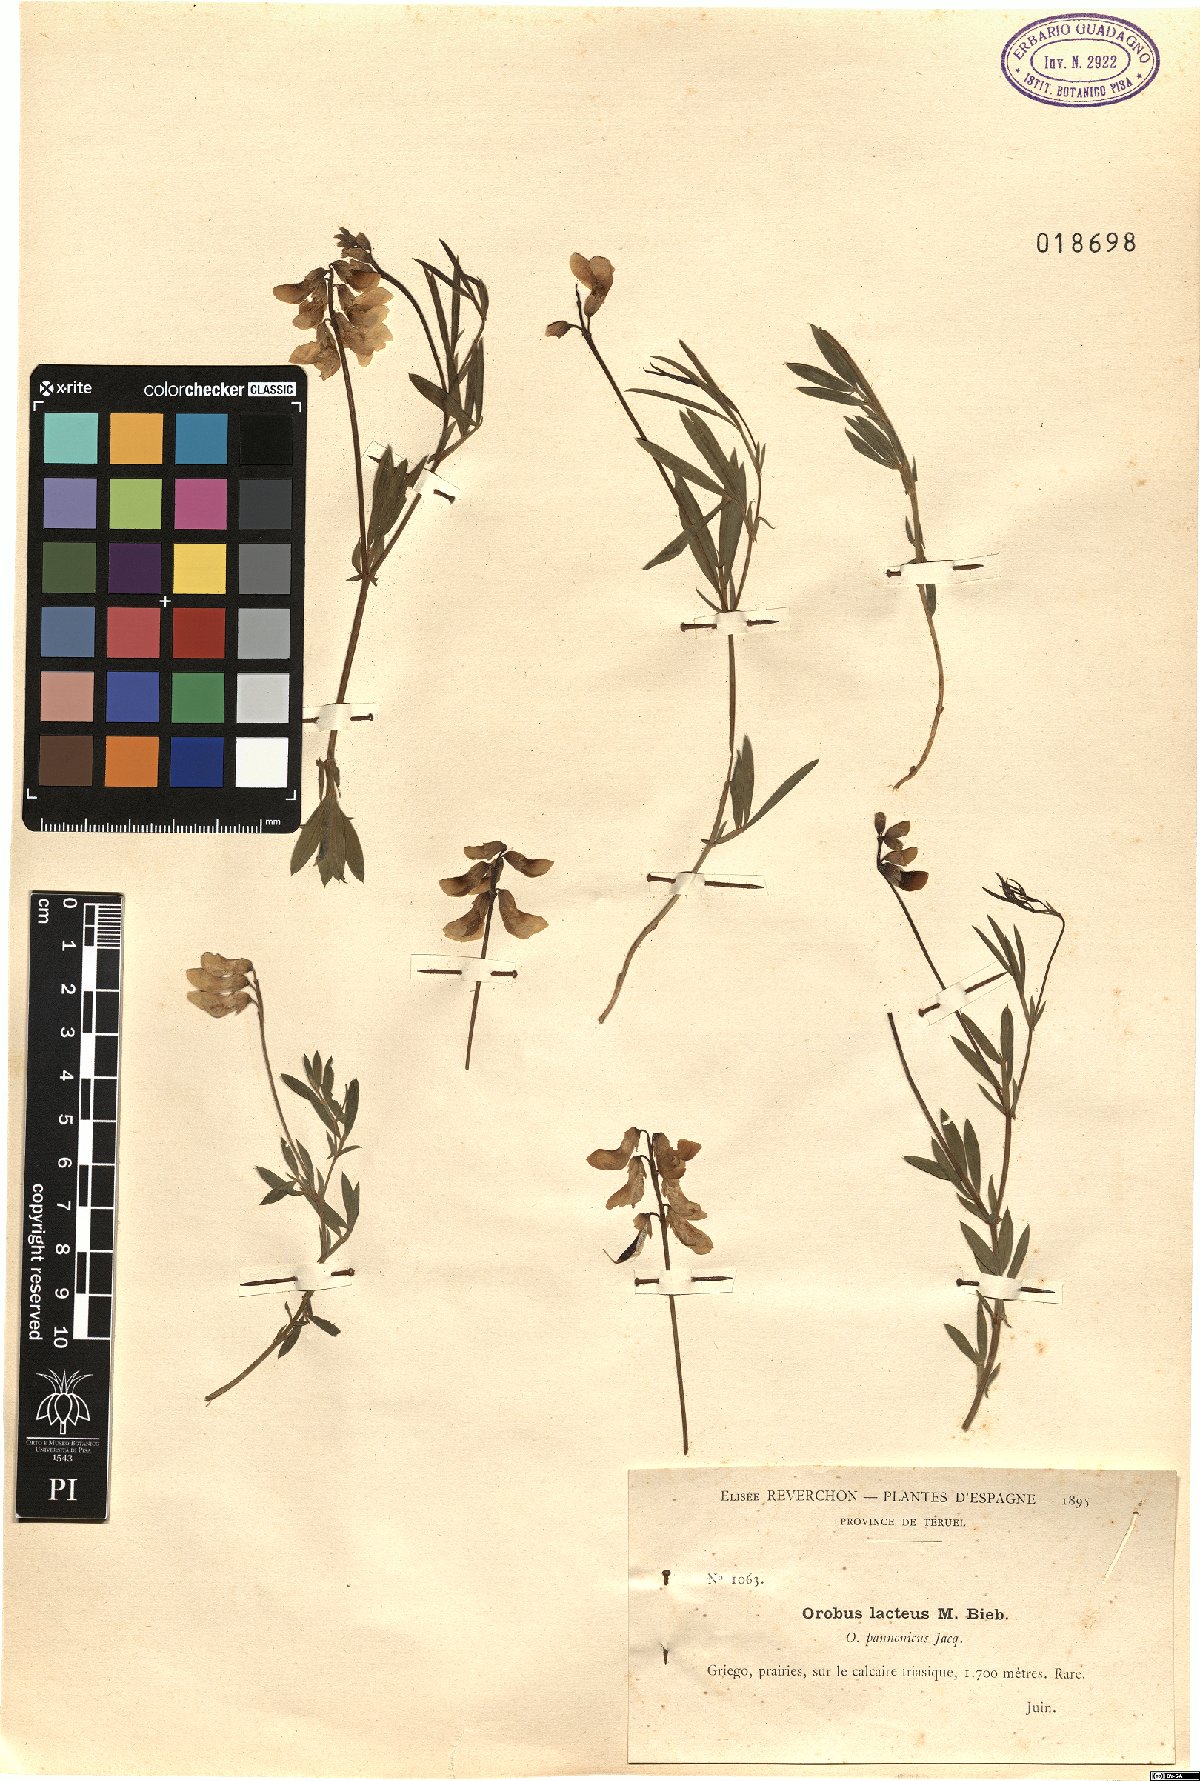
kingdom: Plantae
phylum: Tracheophyta
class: Magnoliopsida
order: Fabales
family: Fabaceae
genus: Lathyrus
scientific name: Lathyrus pannonicus
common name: Pea
